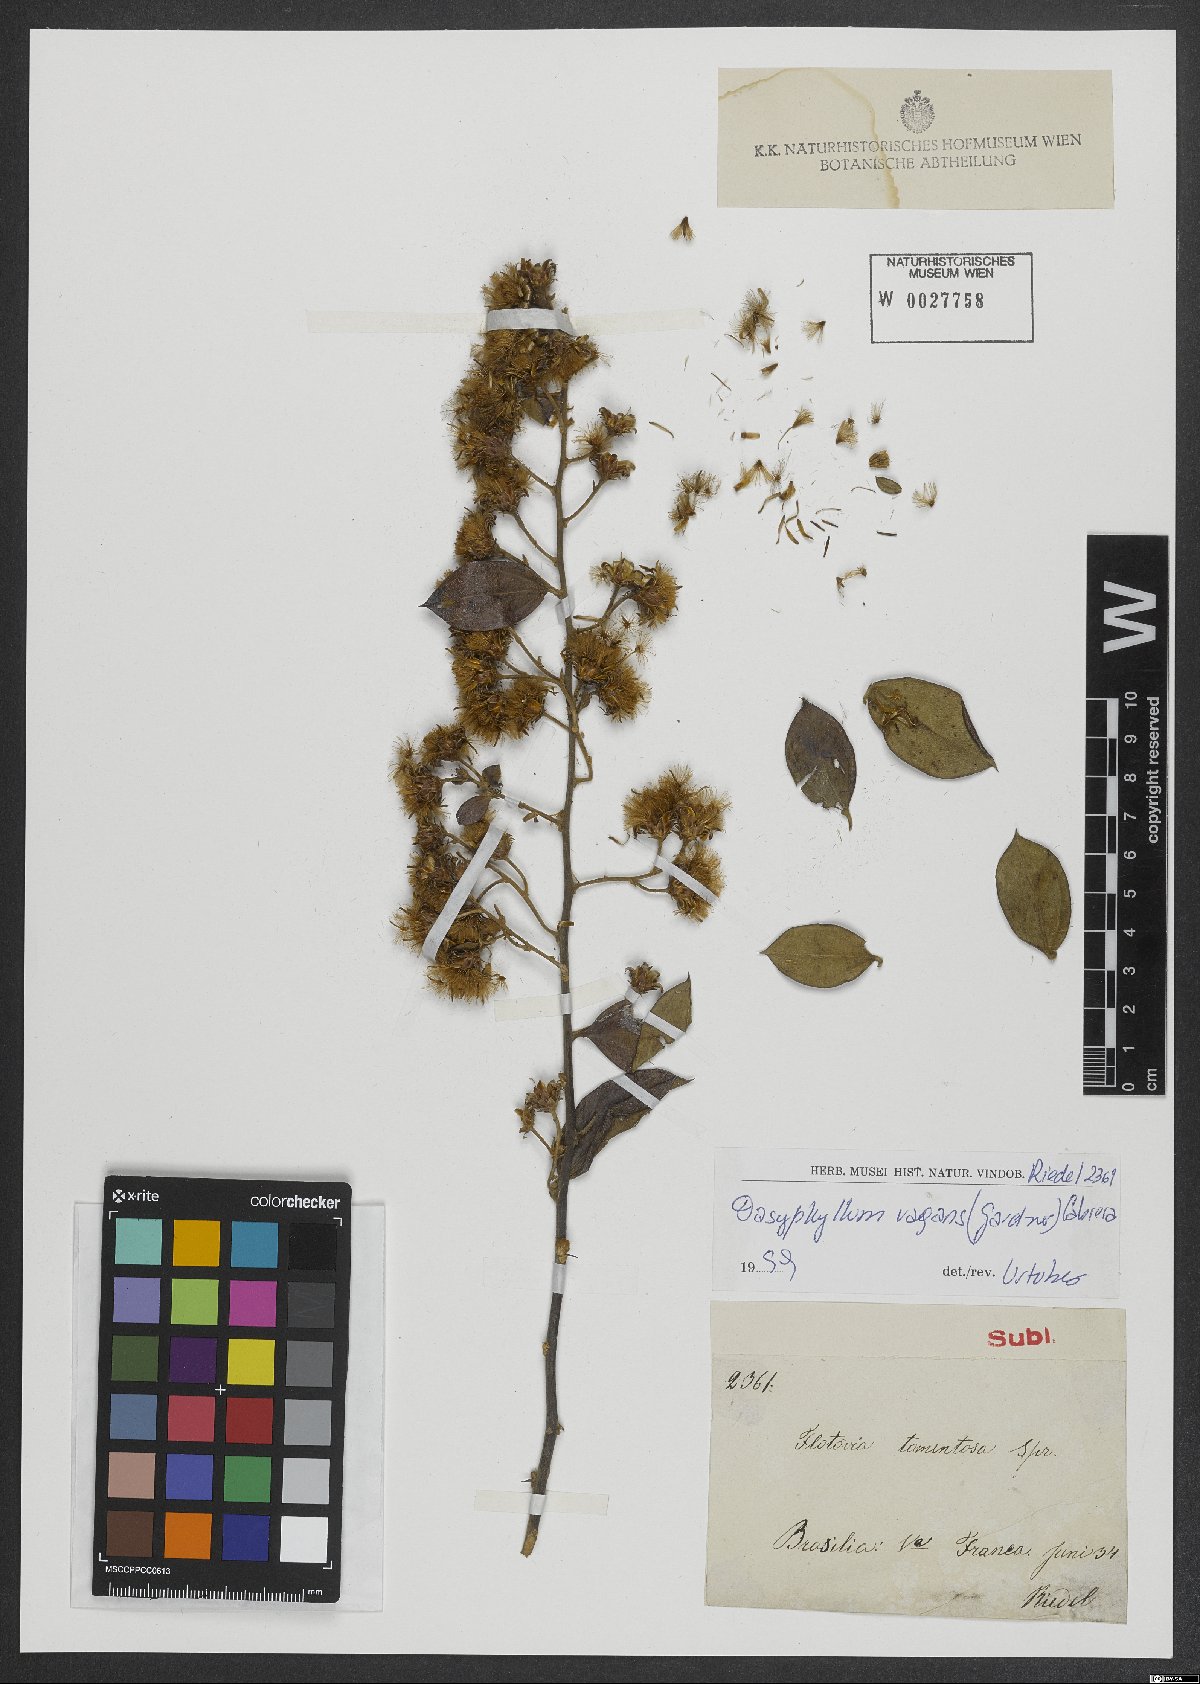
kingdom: Plantae
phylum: Tracheophyta
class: Magnoliopsida
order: Asterales
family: Asteraceae
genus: Dasyphyllum
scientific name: Dasyphyllum vagans
